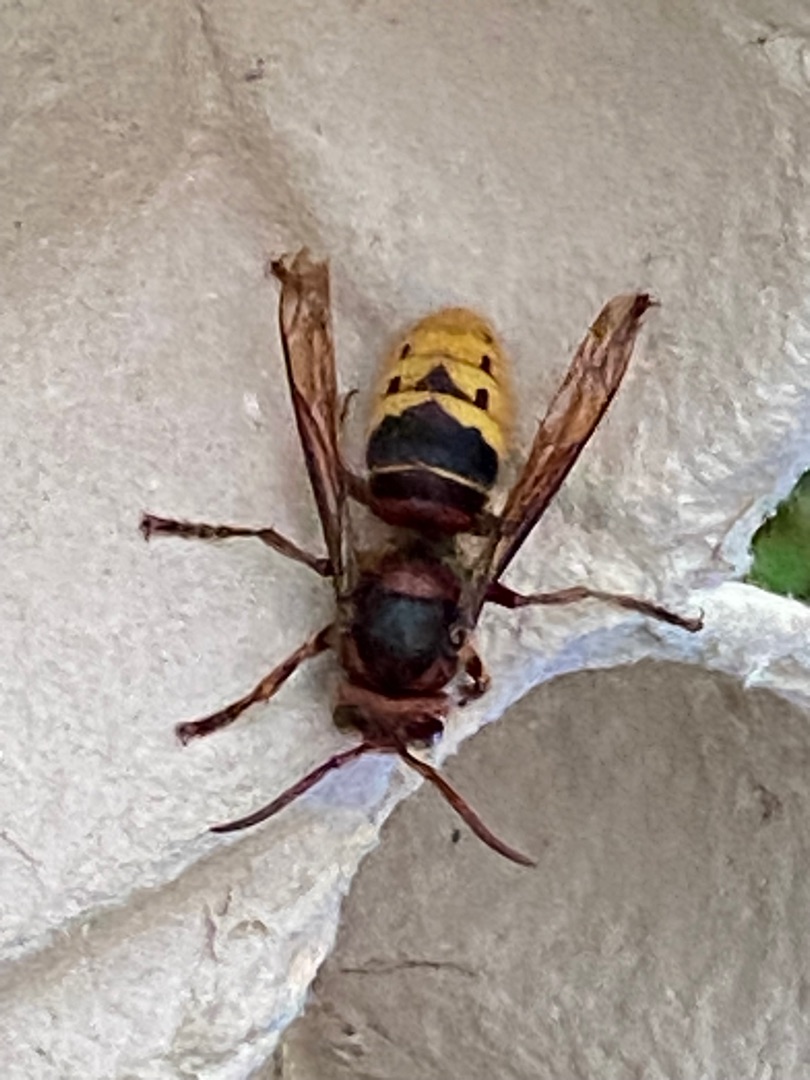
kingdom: Animalia
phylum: Arthropoda
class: Insecta
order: Hymenoptera
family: Vespidae
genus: Vespa
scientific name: Vespa crabro
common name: Stor gedehams
